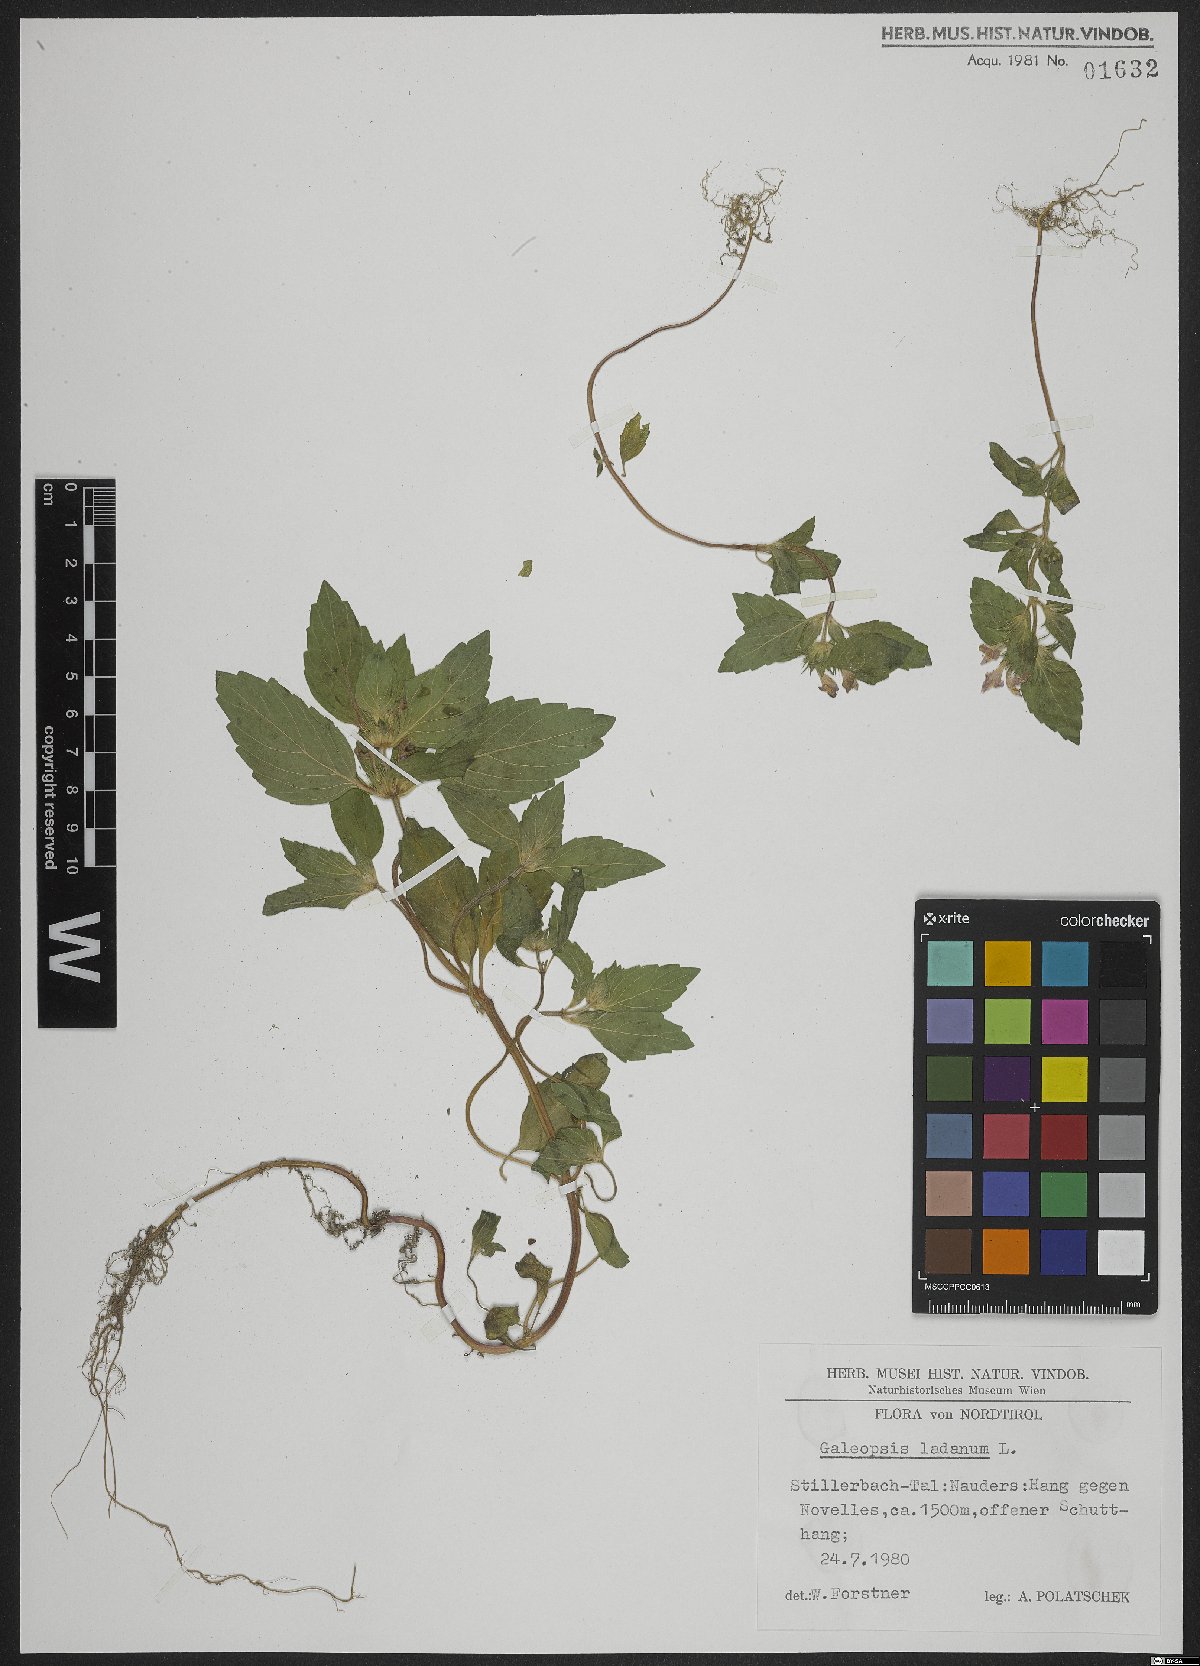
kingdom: Plantae
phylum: Tracheophyta
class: Magnoliopsida
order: Lamiales
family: Lamiaceae
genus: Galeopsis
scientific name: Galeopsis ladanum
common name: Broad-leaved hemp-nettle
